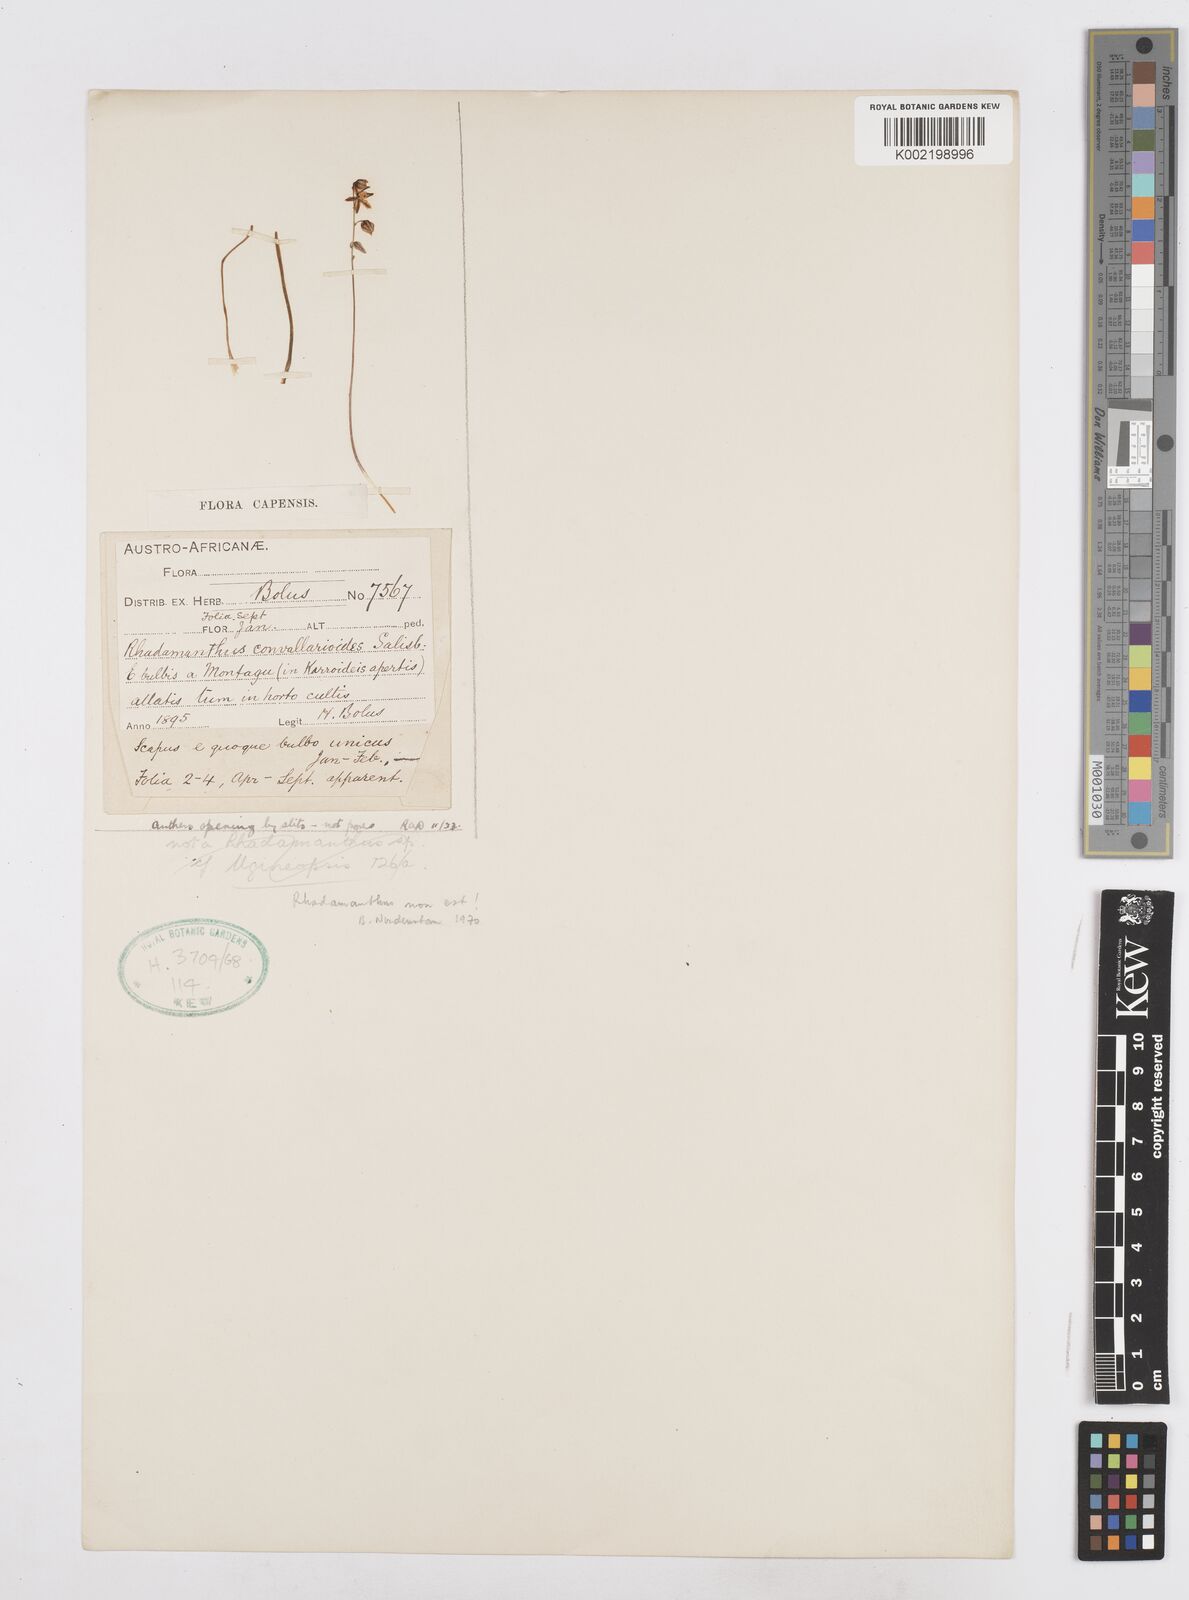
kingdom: Plantae
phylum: Tracheophyta
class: Liliopsida
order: Asparagales
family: Asparagaceae
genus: Drimia
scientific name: Drimia anomala
